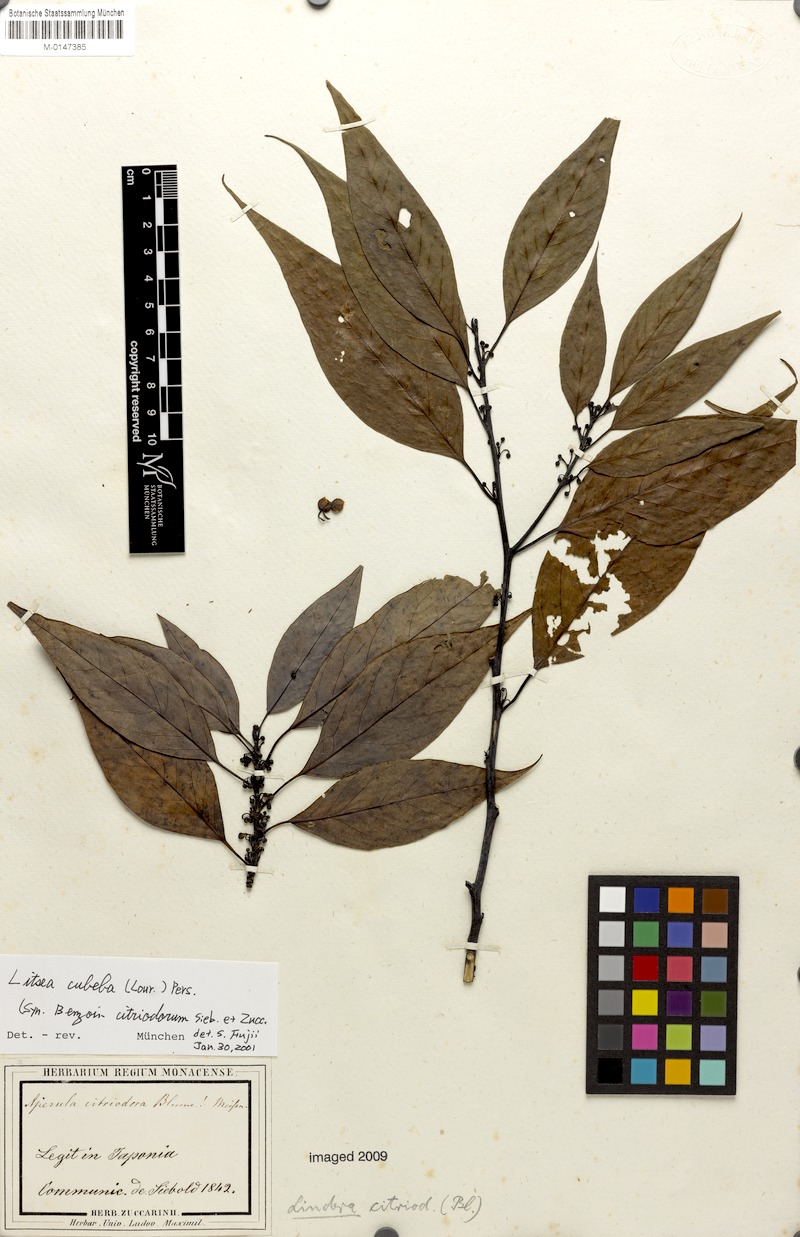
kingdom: Plantae
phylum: Tracheophyta
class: Magnoliopsida
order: Laurales
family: Lauraceae
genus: Litsea
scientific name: Litsea cubeba
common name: Mountain-pepper
